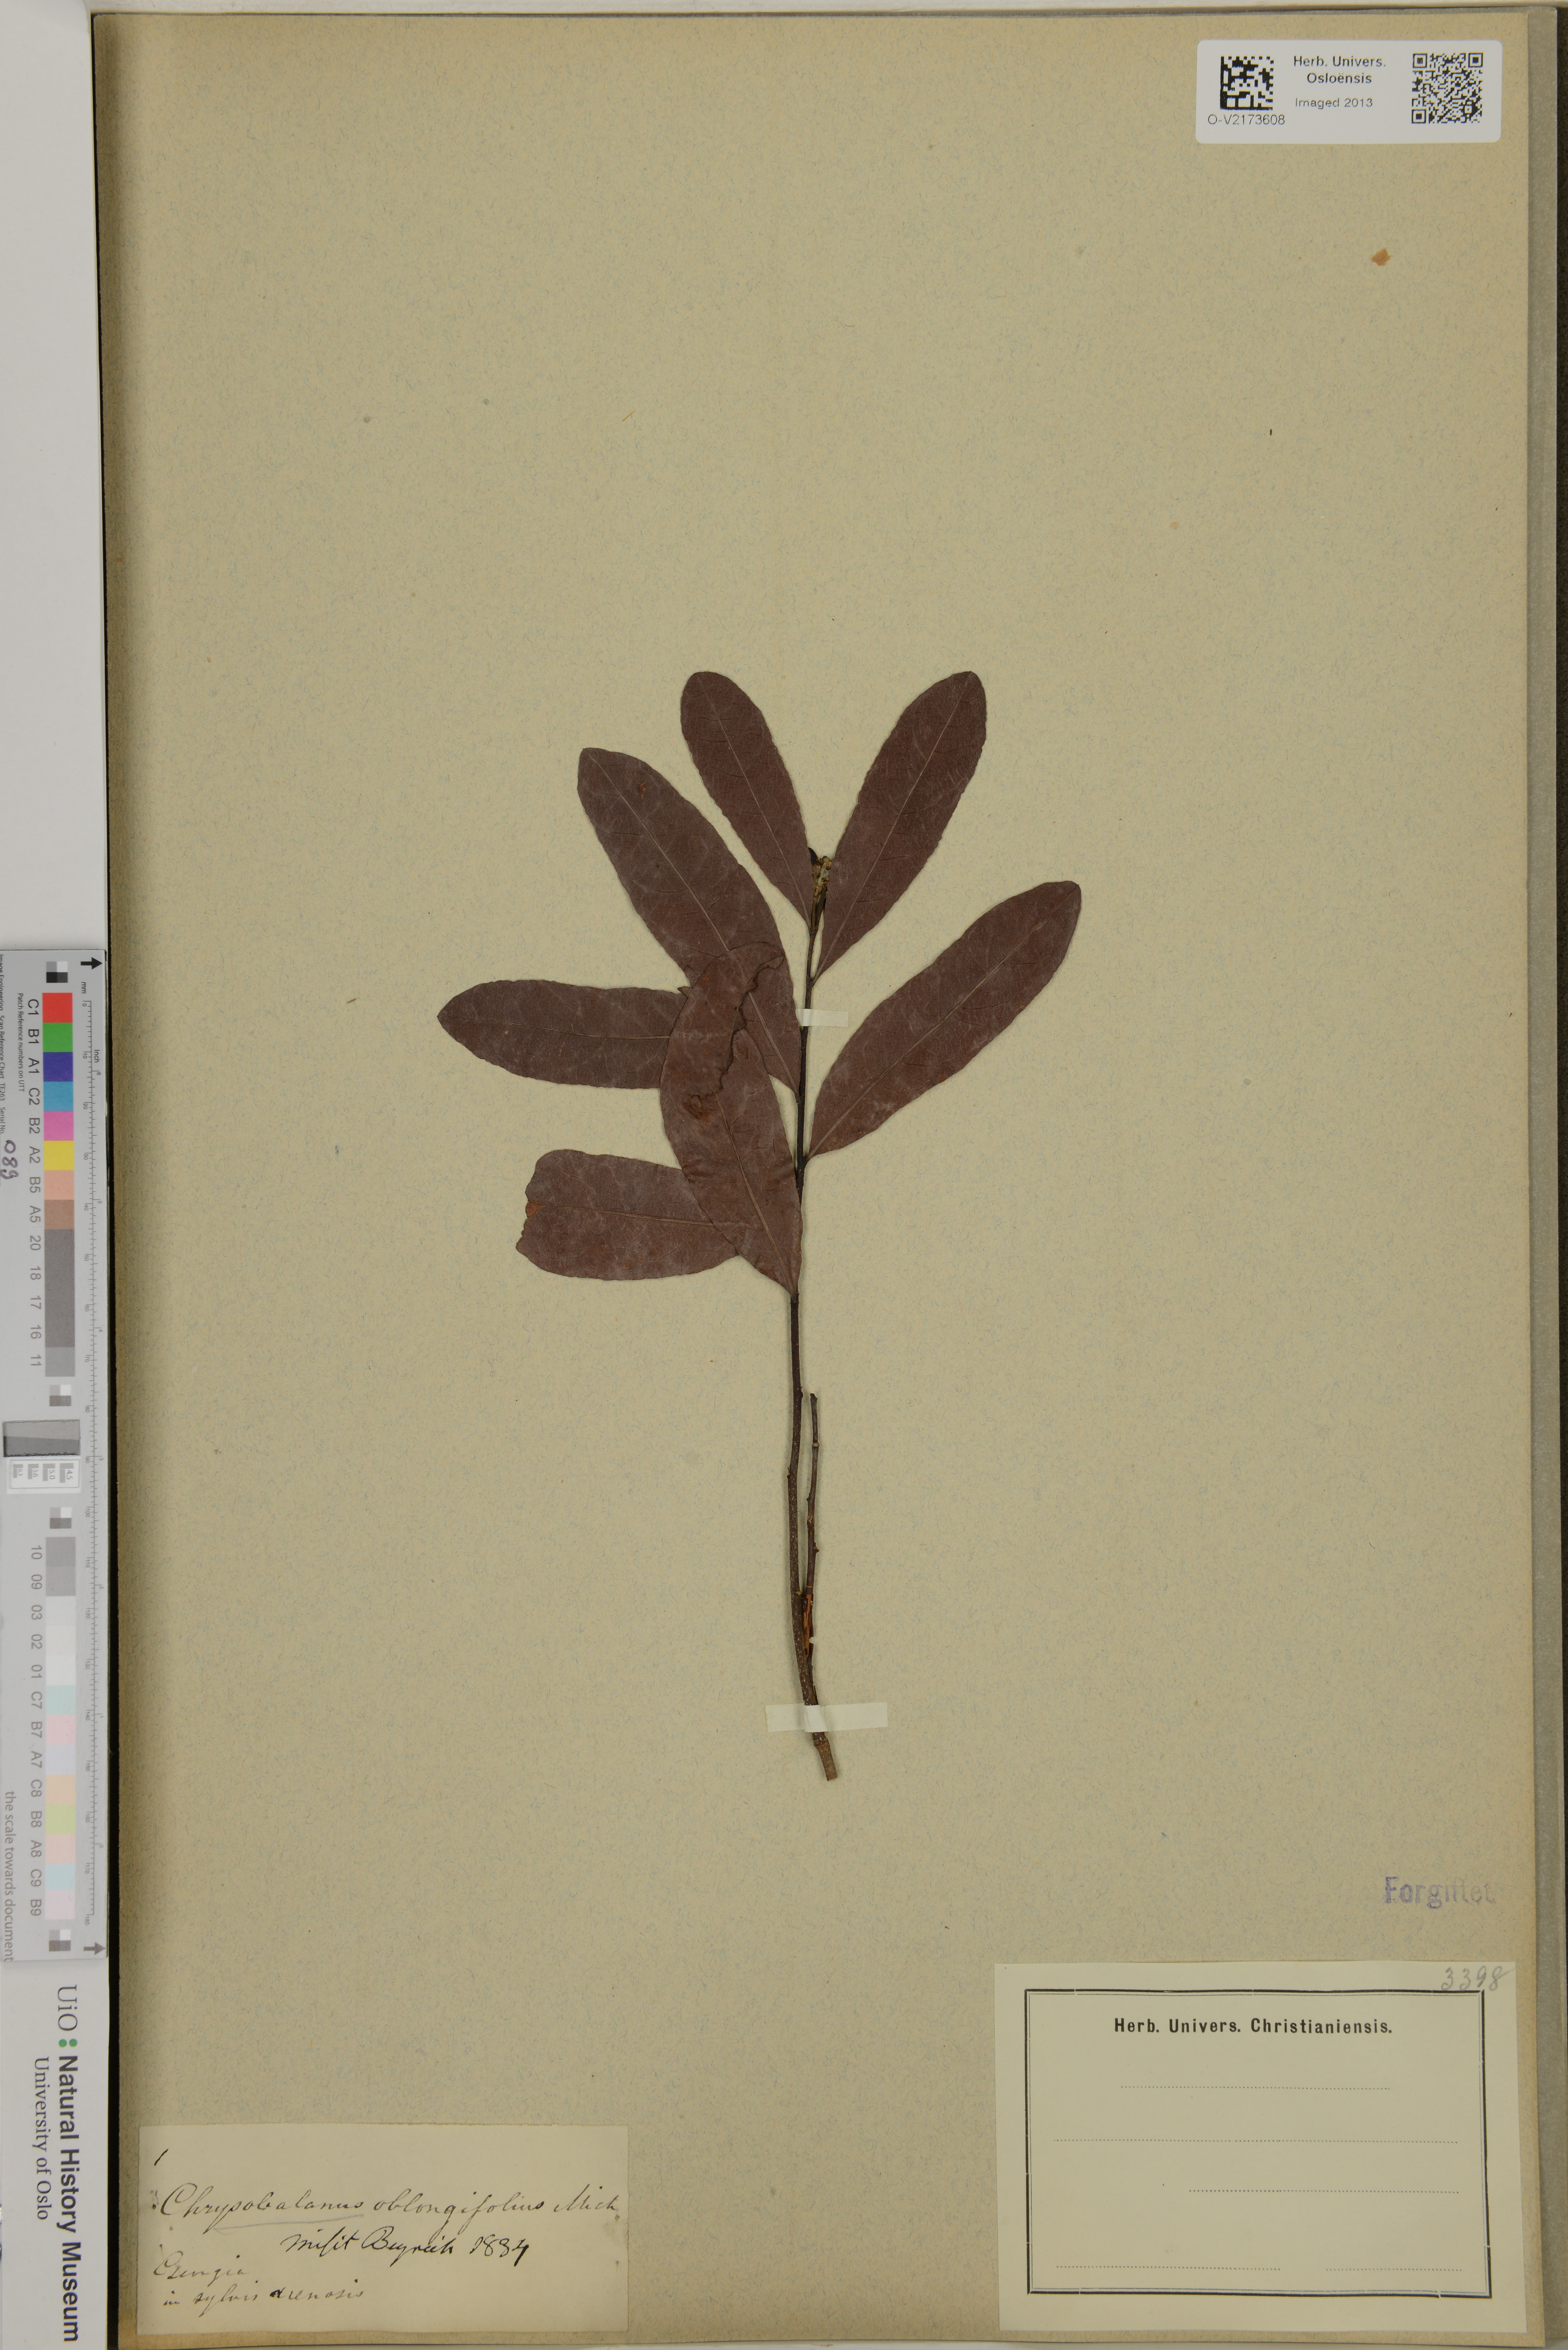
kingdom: Plantae
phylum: Tracheophyta
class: Magnoliopsida
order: Malpighiales
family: Chrysobalanaceae
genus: Geobalanus
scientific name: Geobalanus oblongifolius
